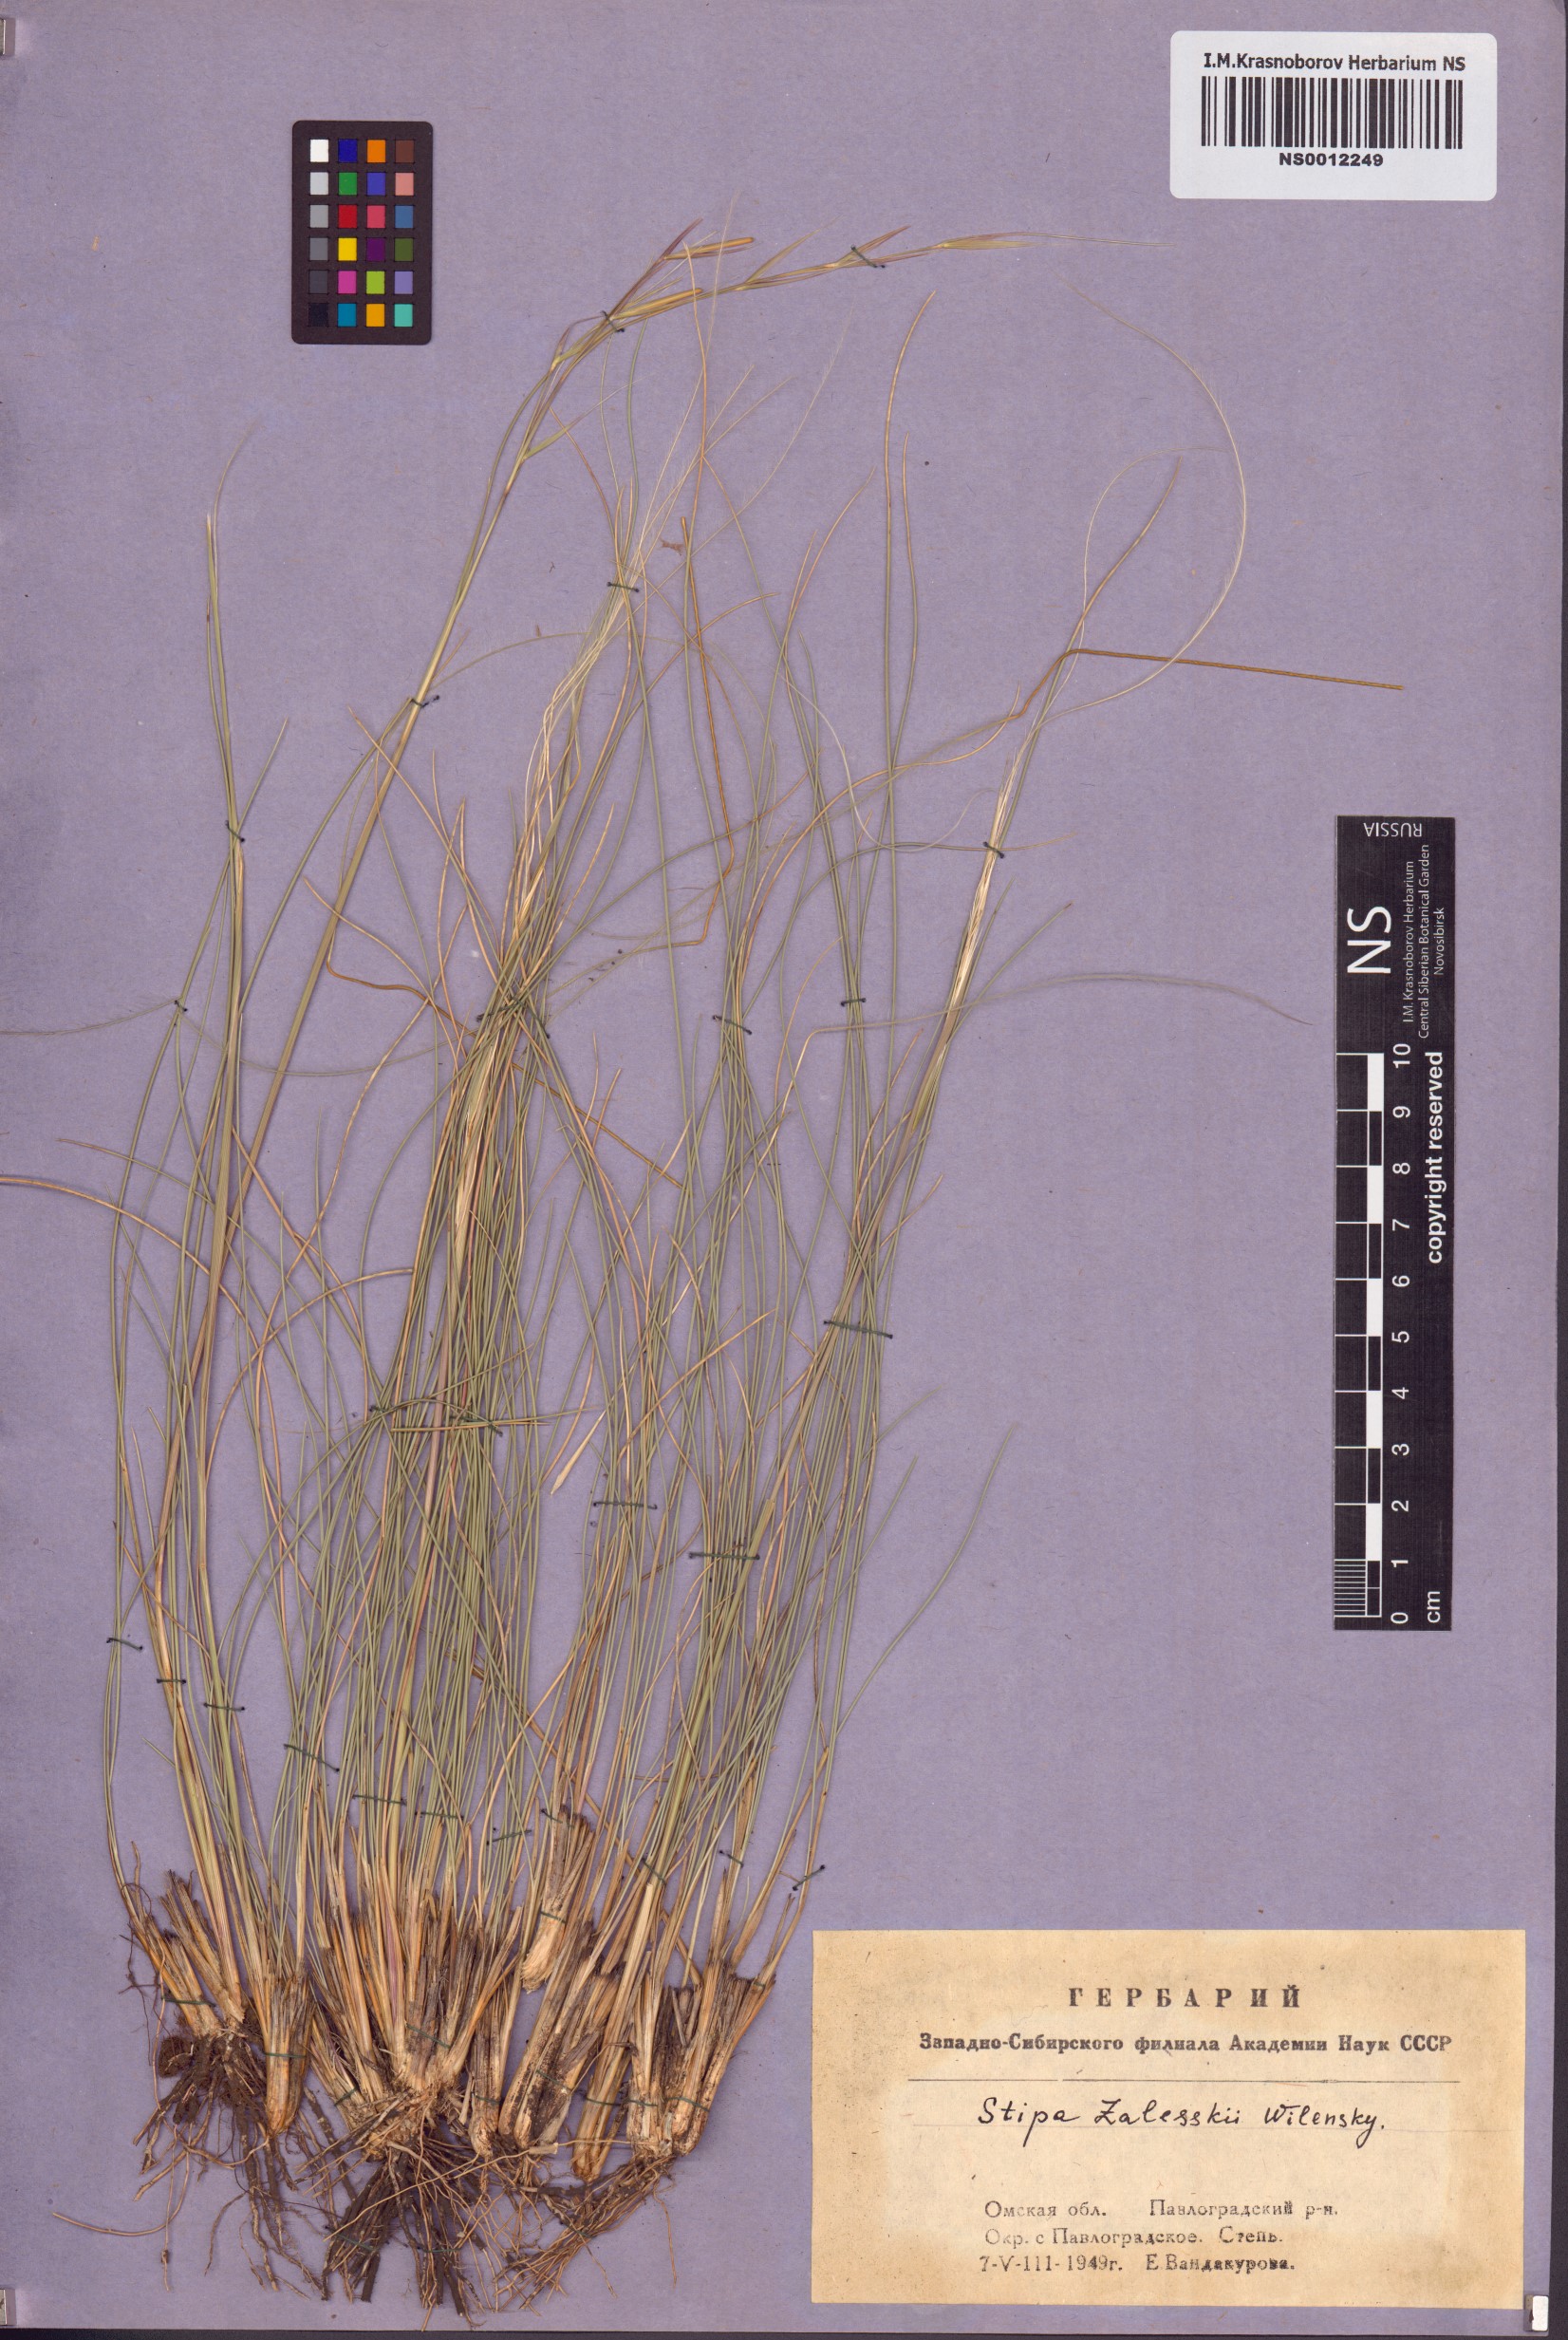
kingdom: Plantae
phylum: Tracheophyta
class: Liliopsida
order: Poales
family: Poaceae
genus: Stipa
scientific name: Stipa zalesskii
